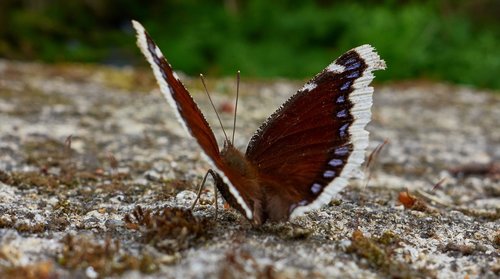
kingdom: Animalia
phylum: Arthropoda
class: Insecta
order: Lepidoptera
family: Nymphalidae
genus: Nymphalis
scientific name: Nymphalis antiopa
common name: Camberwell beauty
